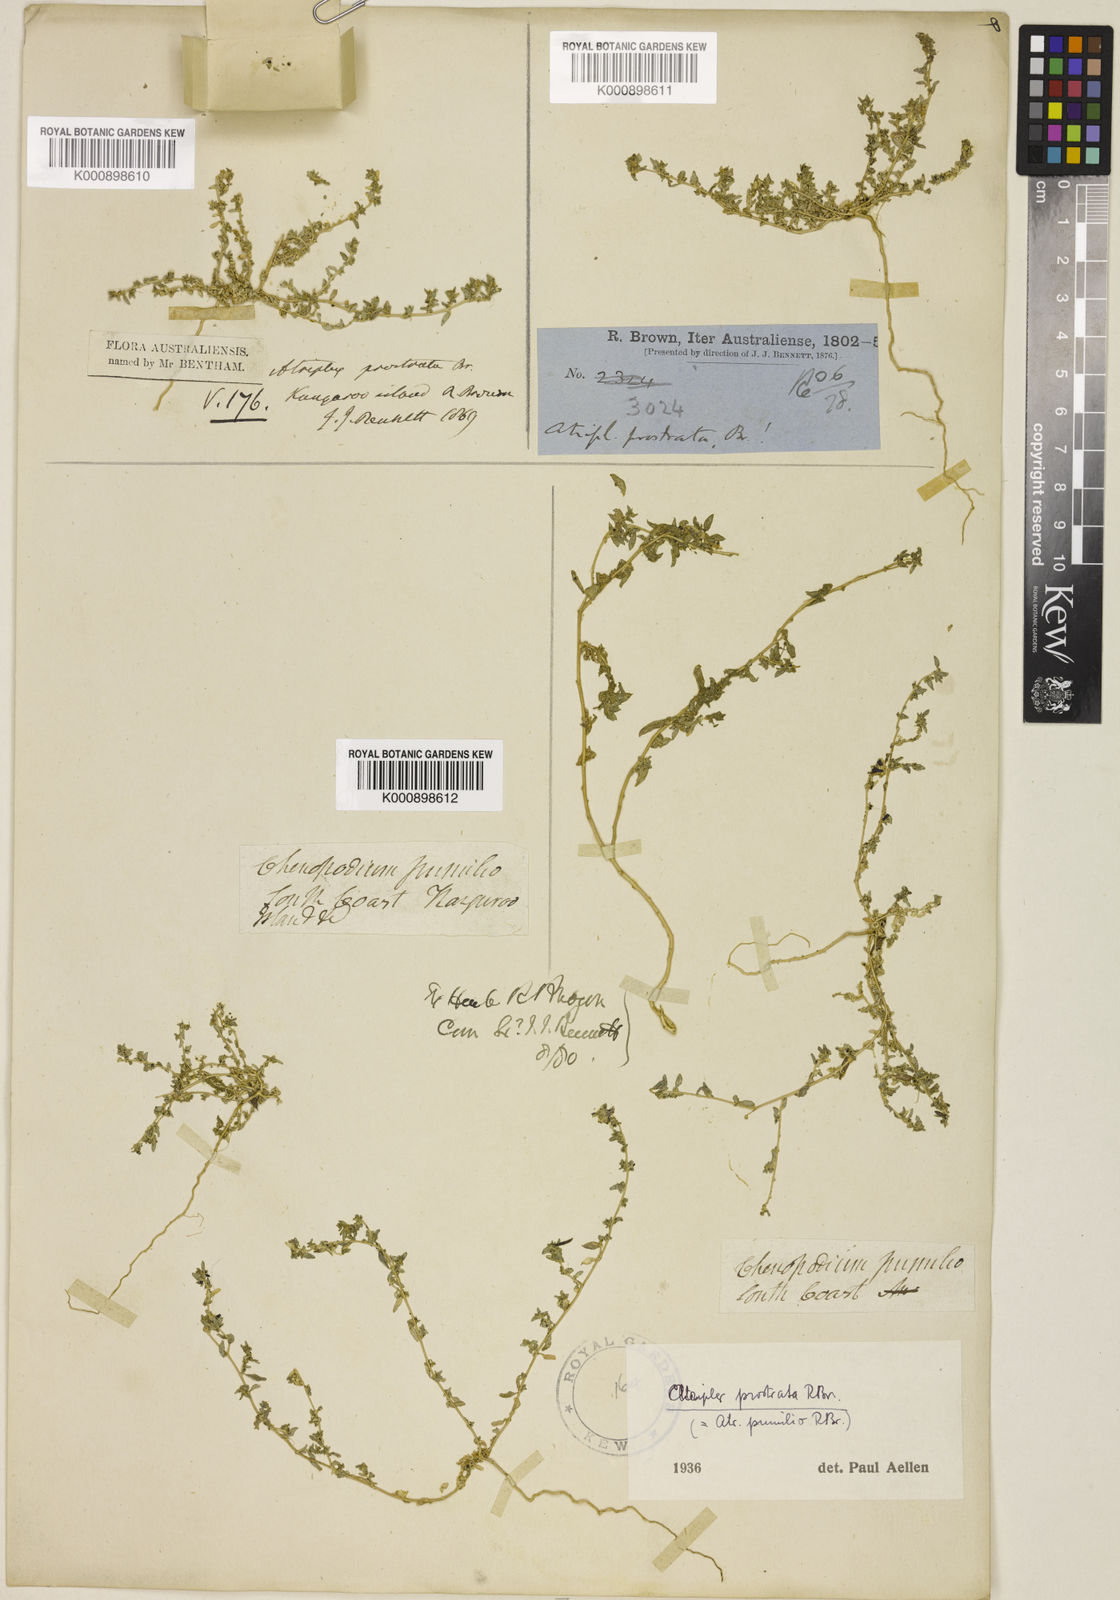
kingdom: Plantae
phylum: Tracheophyta
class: Magnoliopsida
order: Caryophyllales
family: Amaranthaceae
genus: Atriplex
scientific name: Atriplex pumilio
